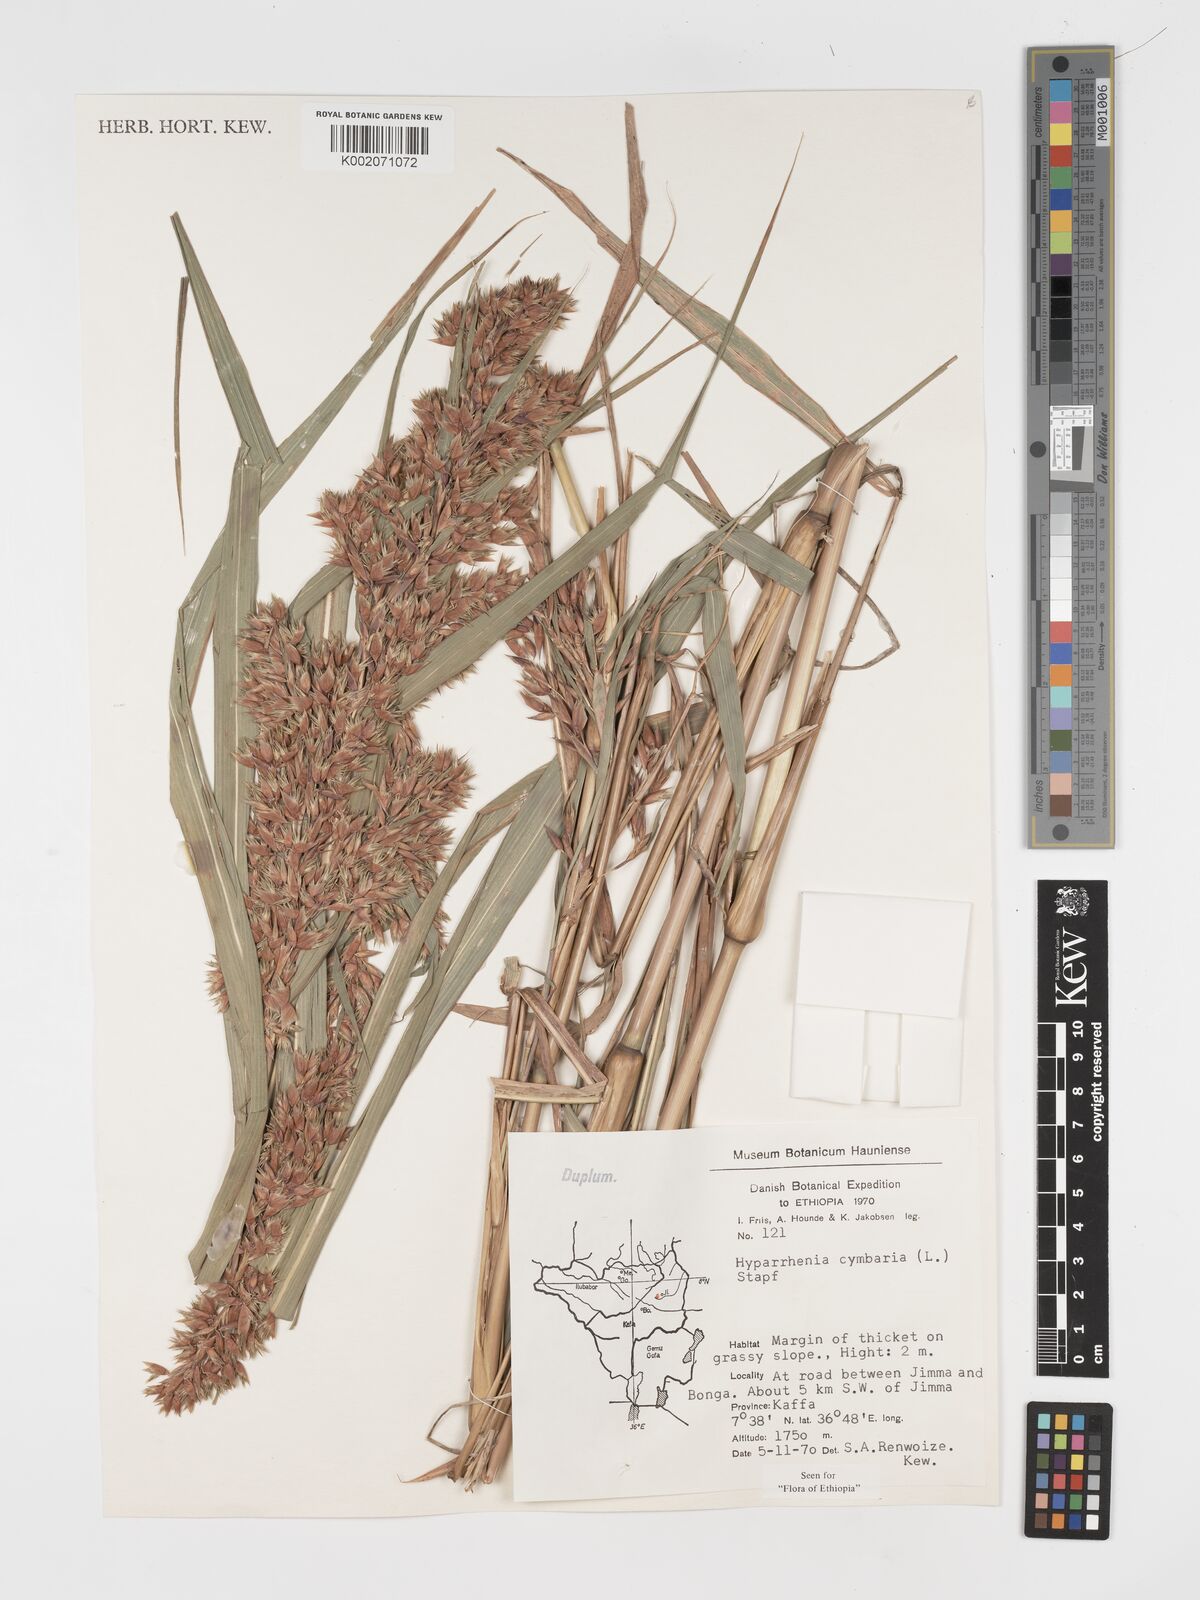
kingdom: Plantae
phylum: Tracheophyta
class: Liliopsida
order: Poales
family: Poaceae
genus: Hyparrhenia
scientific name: Hyparrhenia cymbaria
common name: Boat thatching grass
